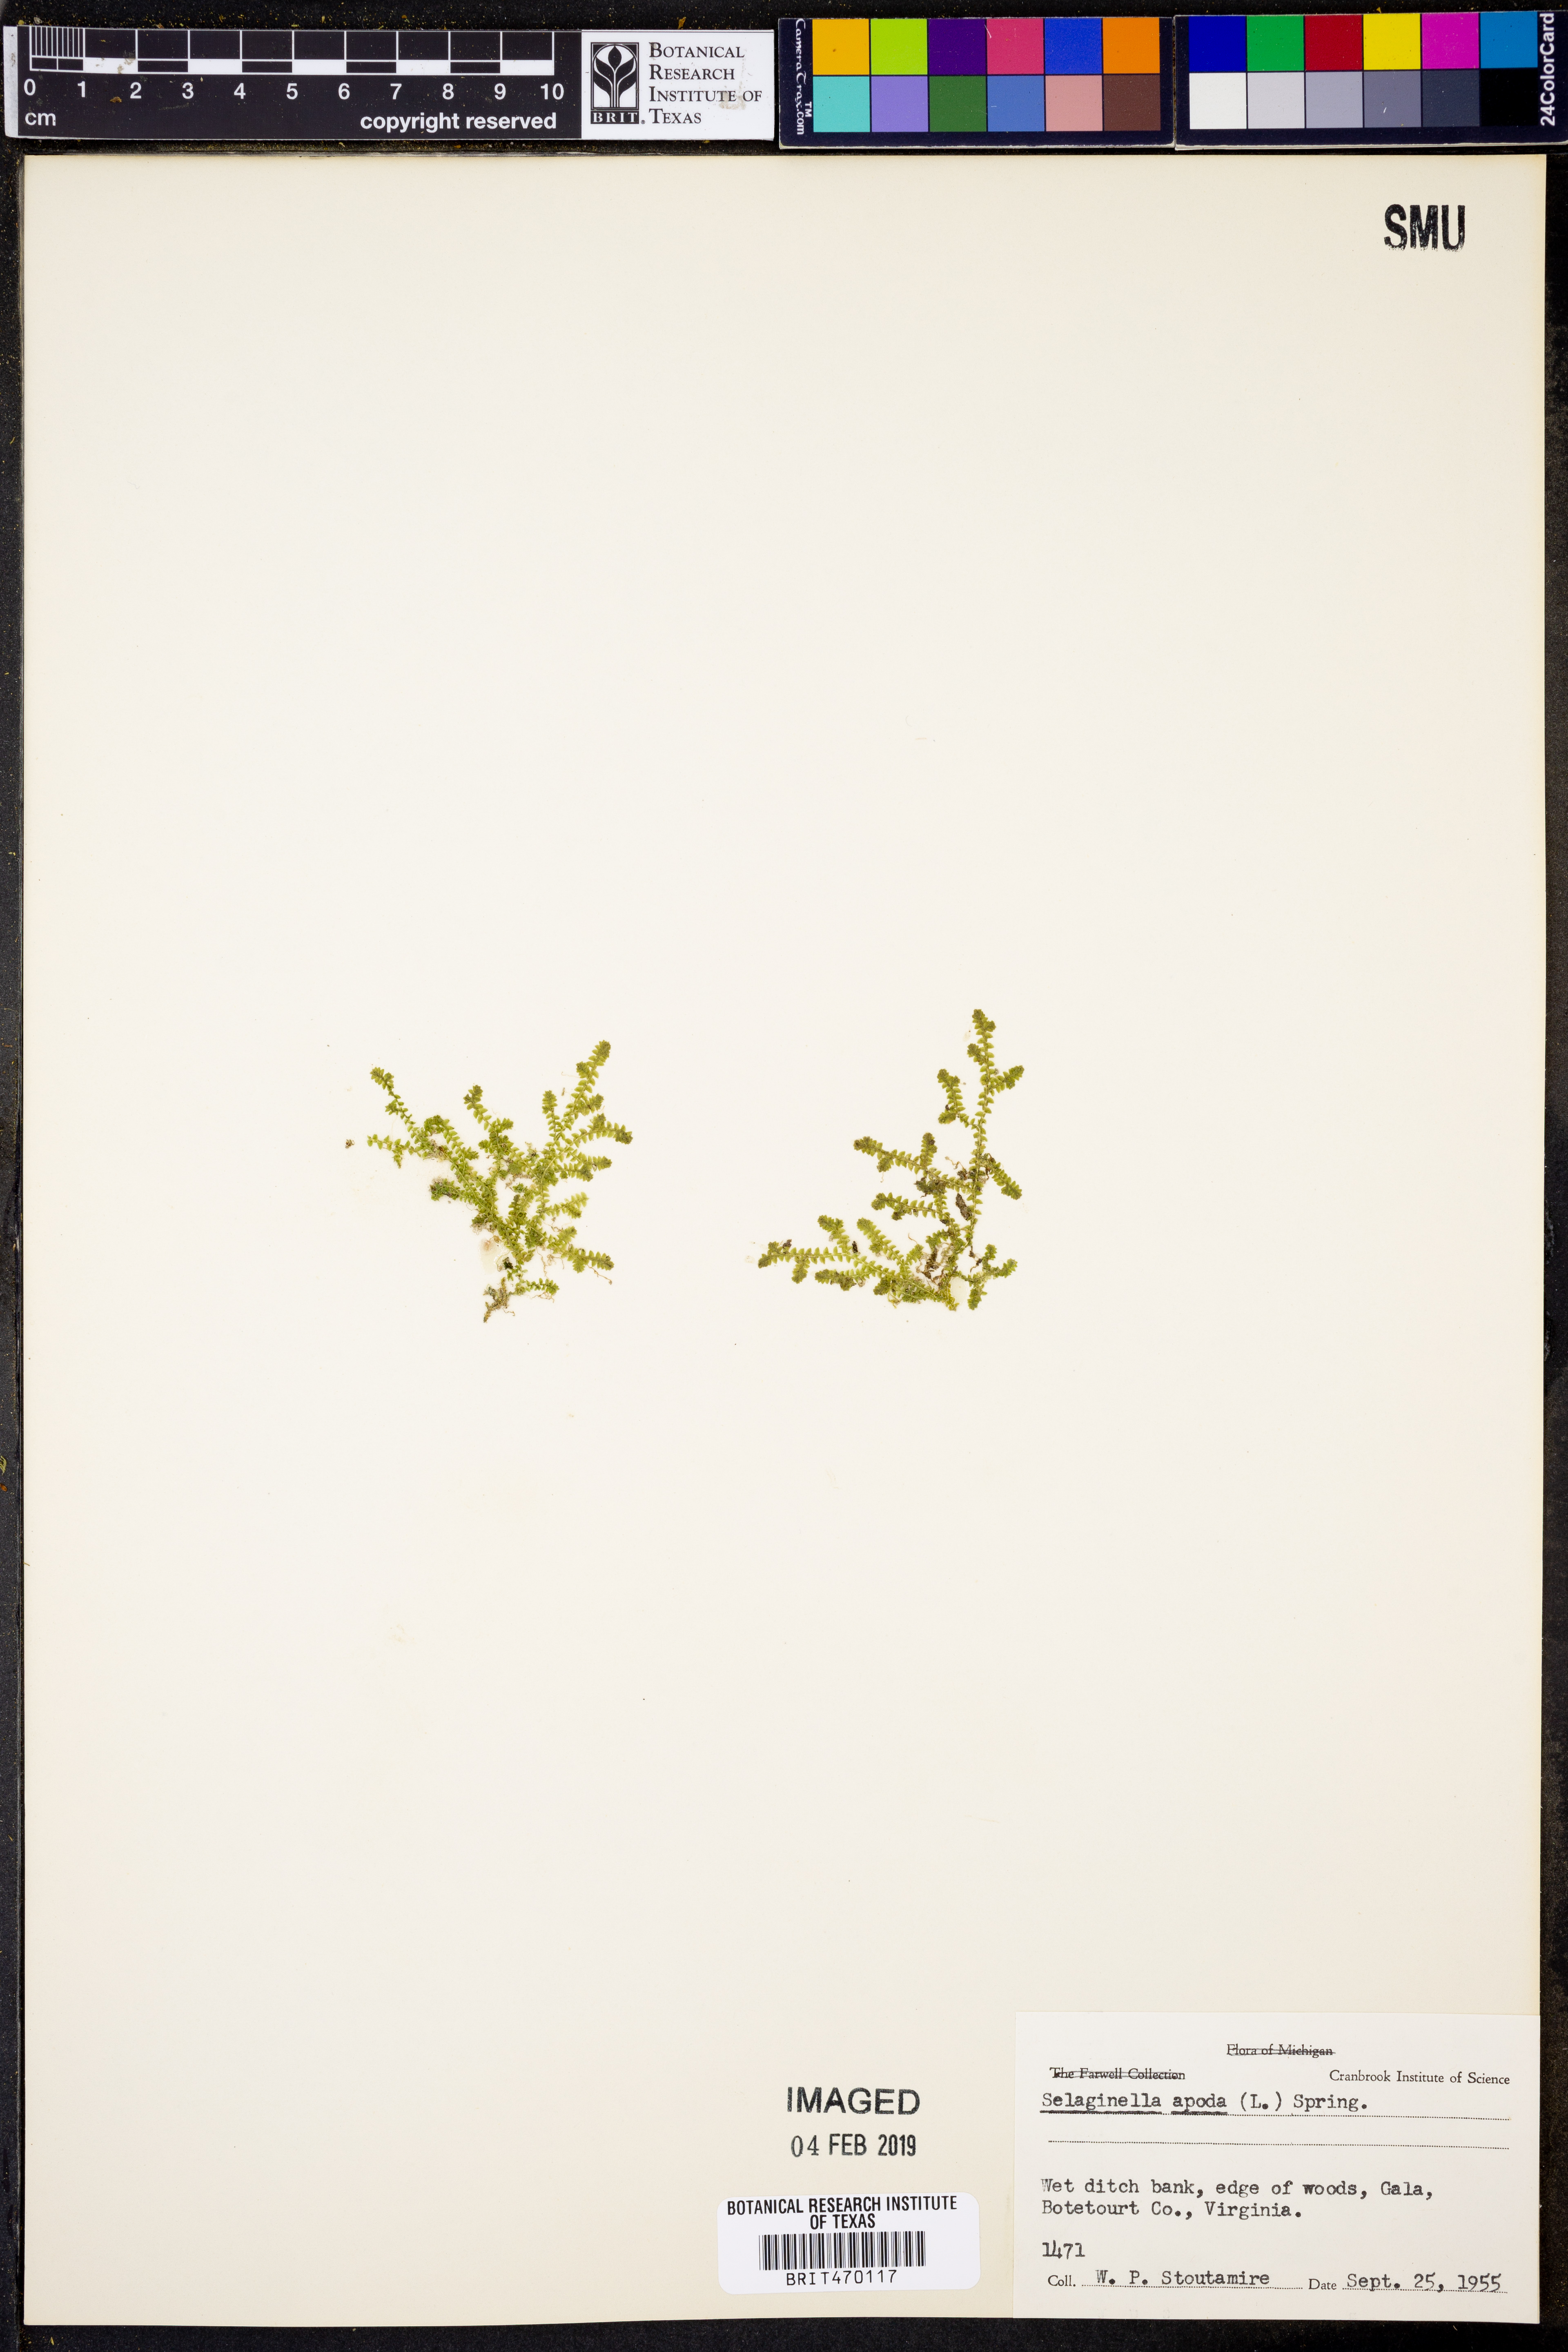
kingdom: Plantae
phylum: Tracheophyta
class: Lycopodiopsida
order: Selaginellales
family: Selaginellaceae
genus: Selaginella
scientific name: Selaginella apoda
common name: Creeping spikemoss
